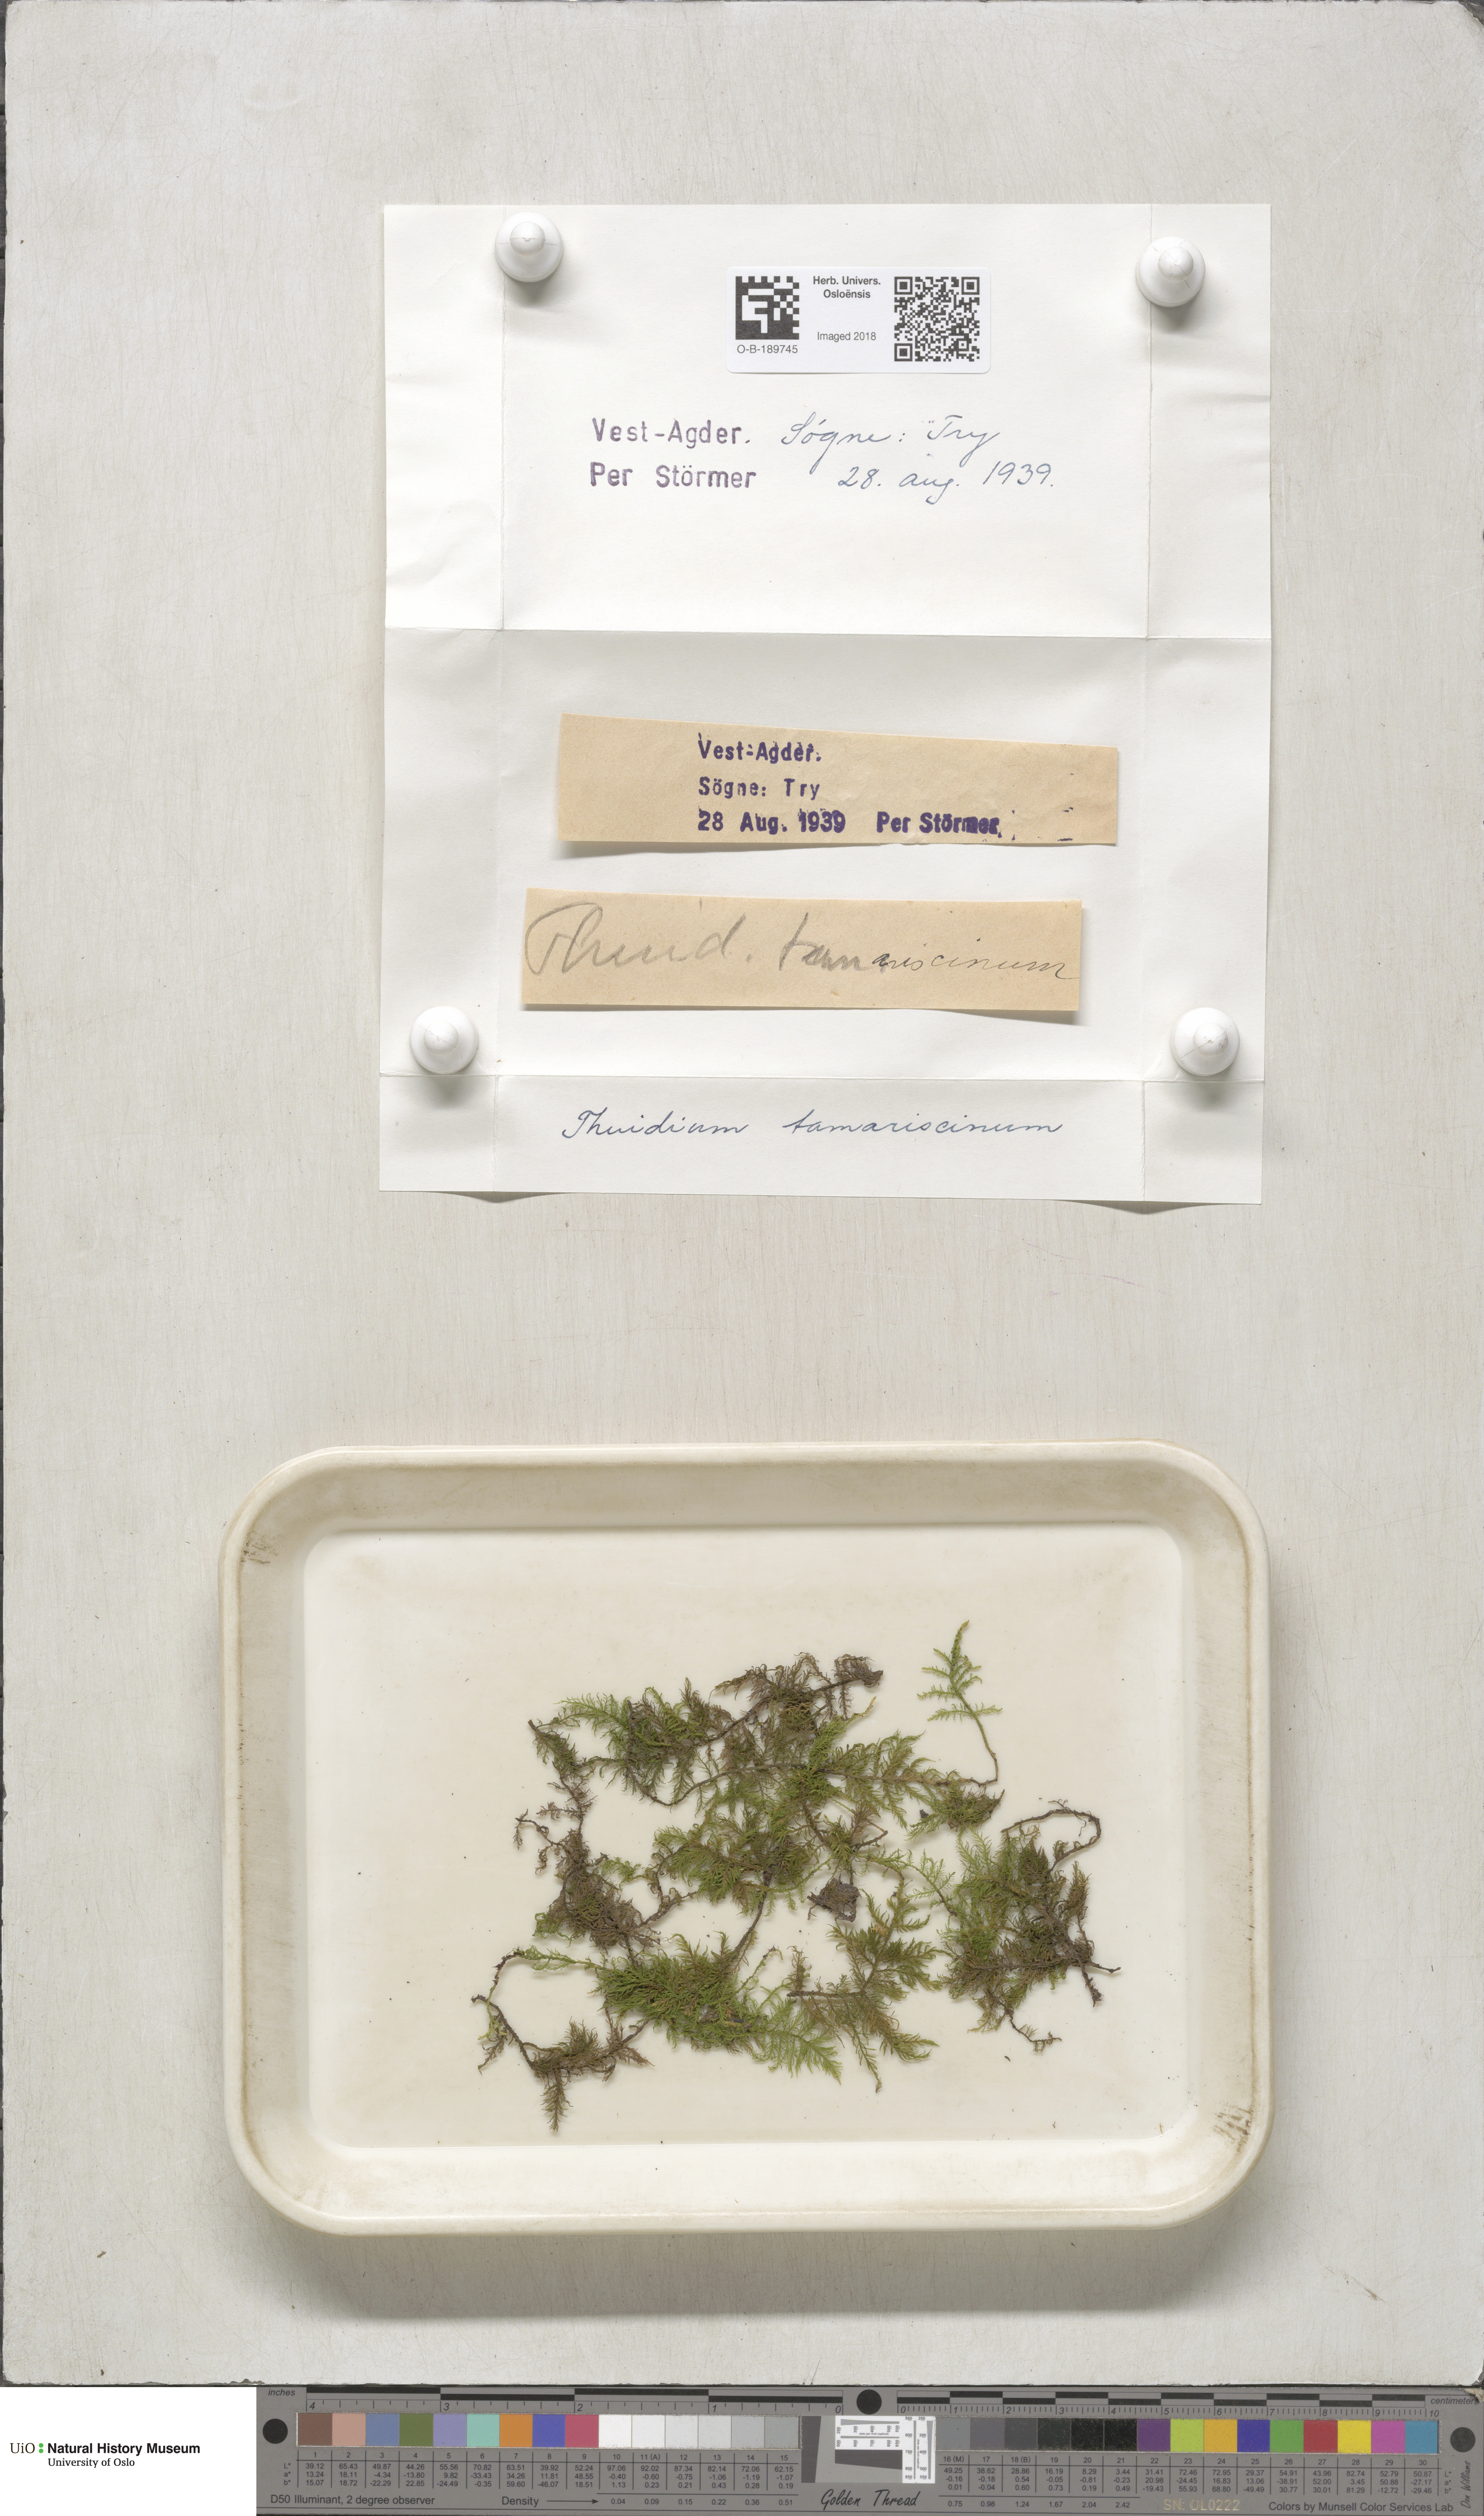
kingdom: Plantae
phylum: Bryophyta
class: Bryopsida
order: Hypnales
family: Thuidiaceae
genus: Thuidium
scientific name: Thuidium tamariscinum
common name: Common tamarisk-moss
